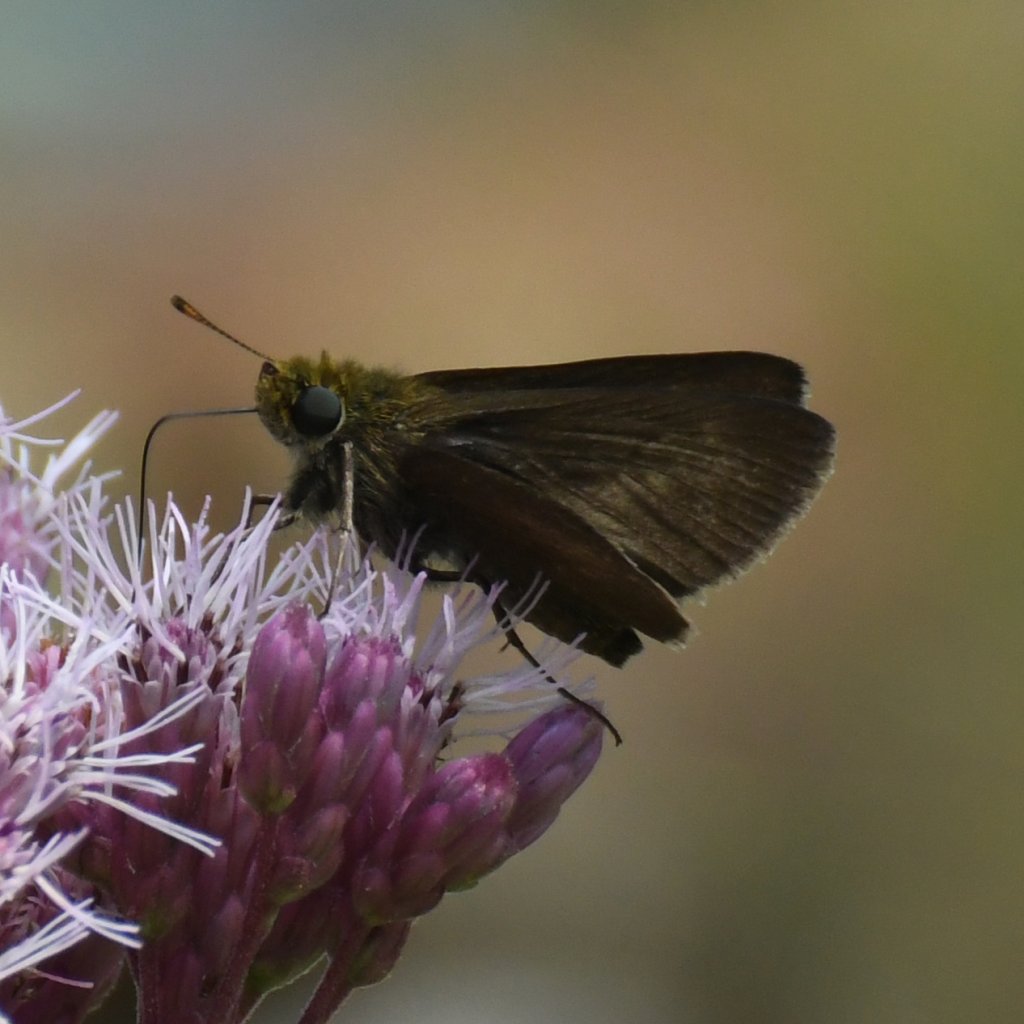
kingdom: Animalia
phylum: Arthropoda
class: Insecta
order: Lepidoptera
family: Hesperiidae
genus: Euphyes
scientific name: Euphyes vestris
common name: Dun Skipper
